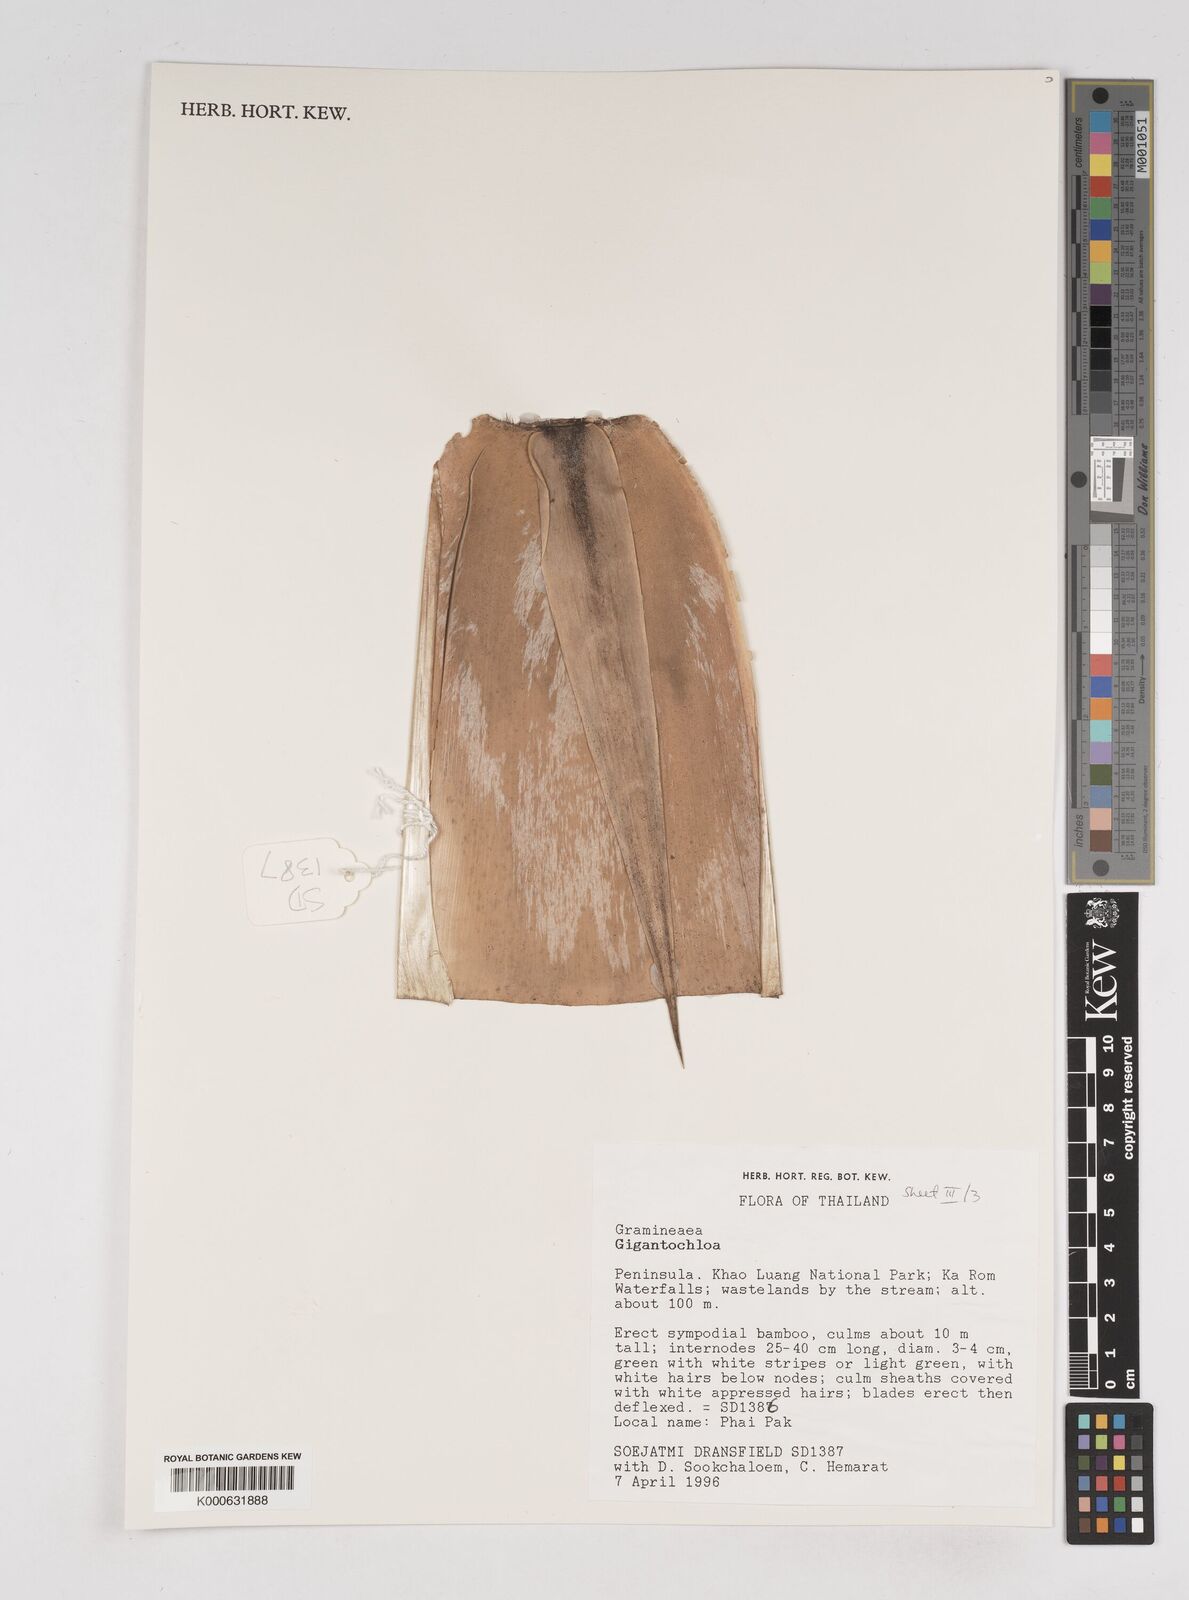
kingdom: Plantae
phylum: Tracheophyta
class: Liliopsida
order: Poales
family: Poaceae
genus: Gigantochloa
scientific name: Gigantochloa
